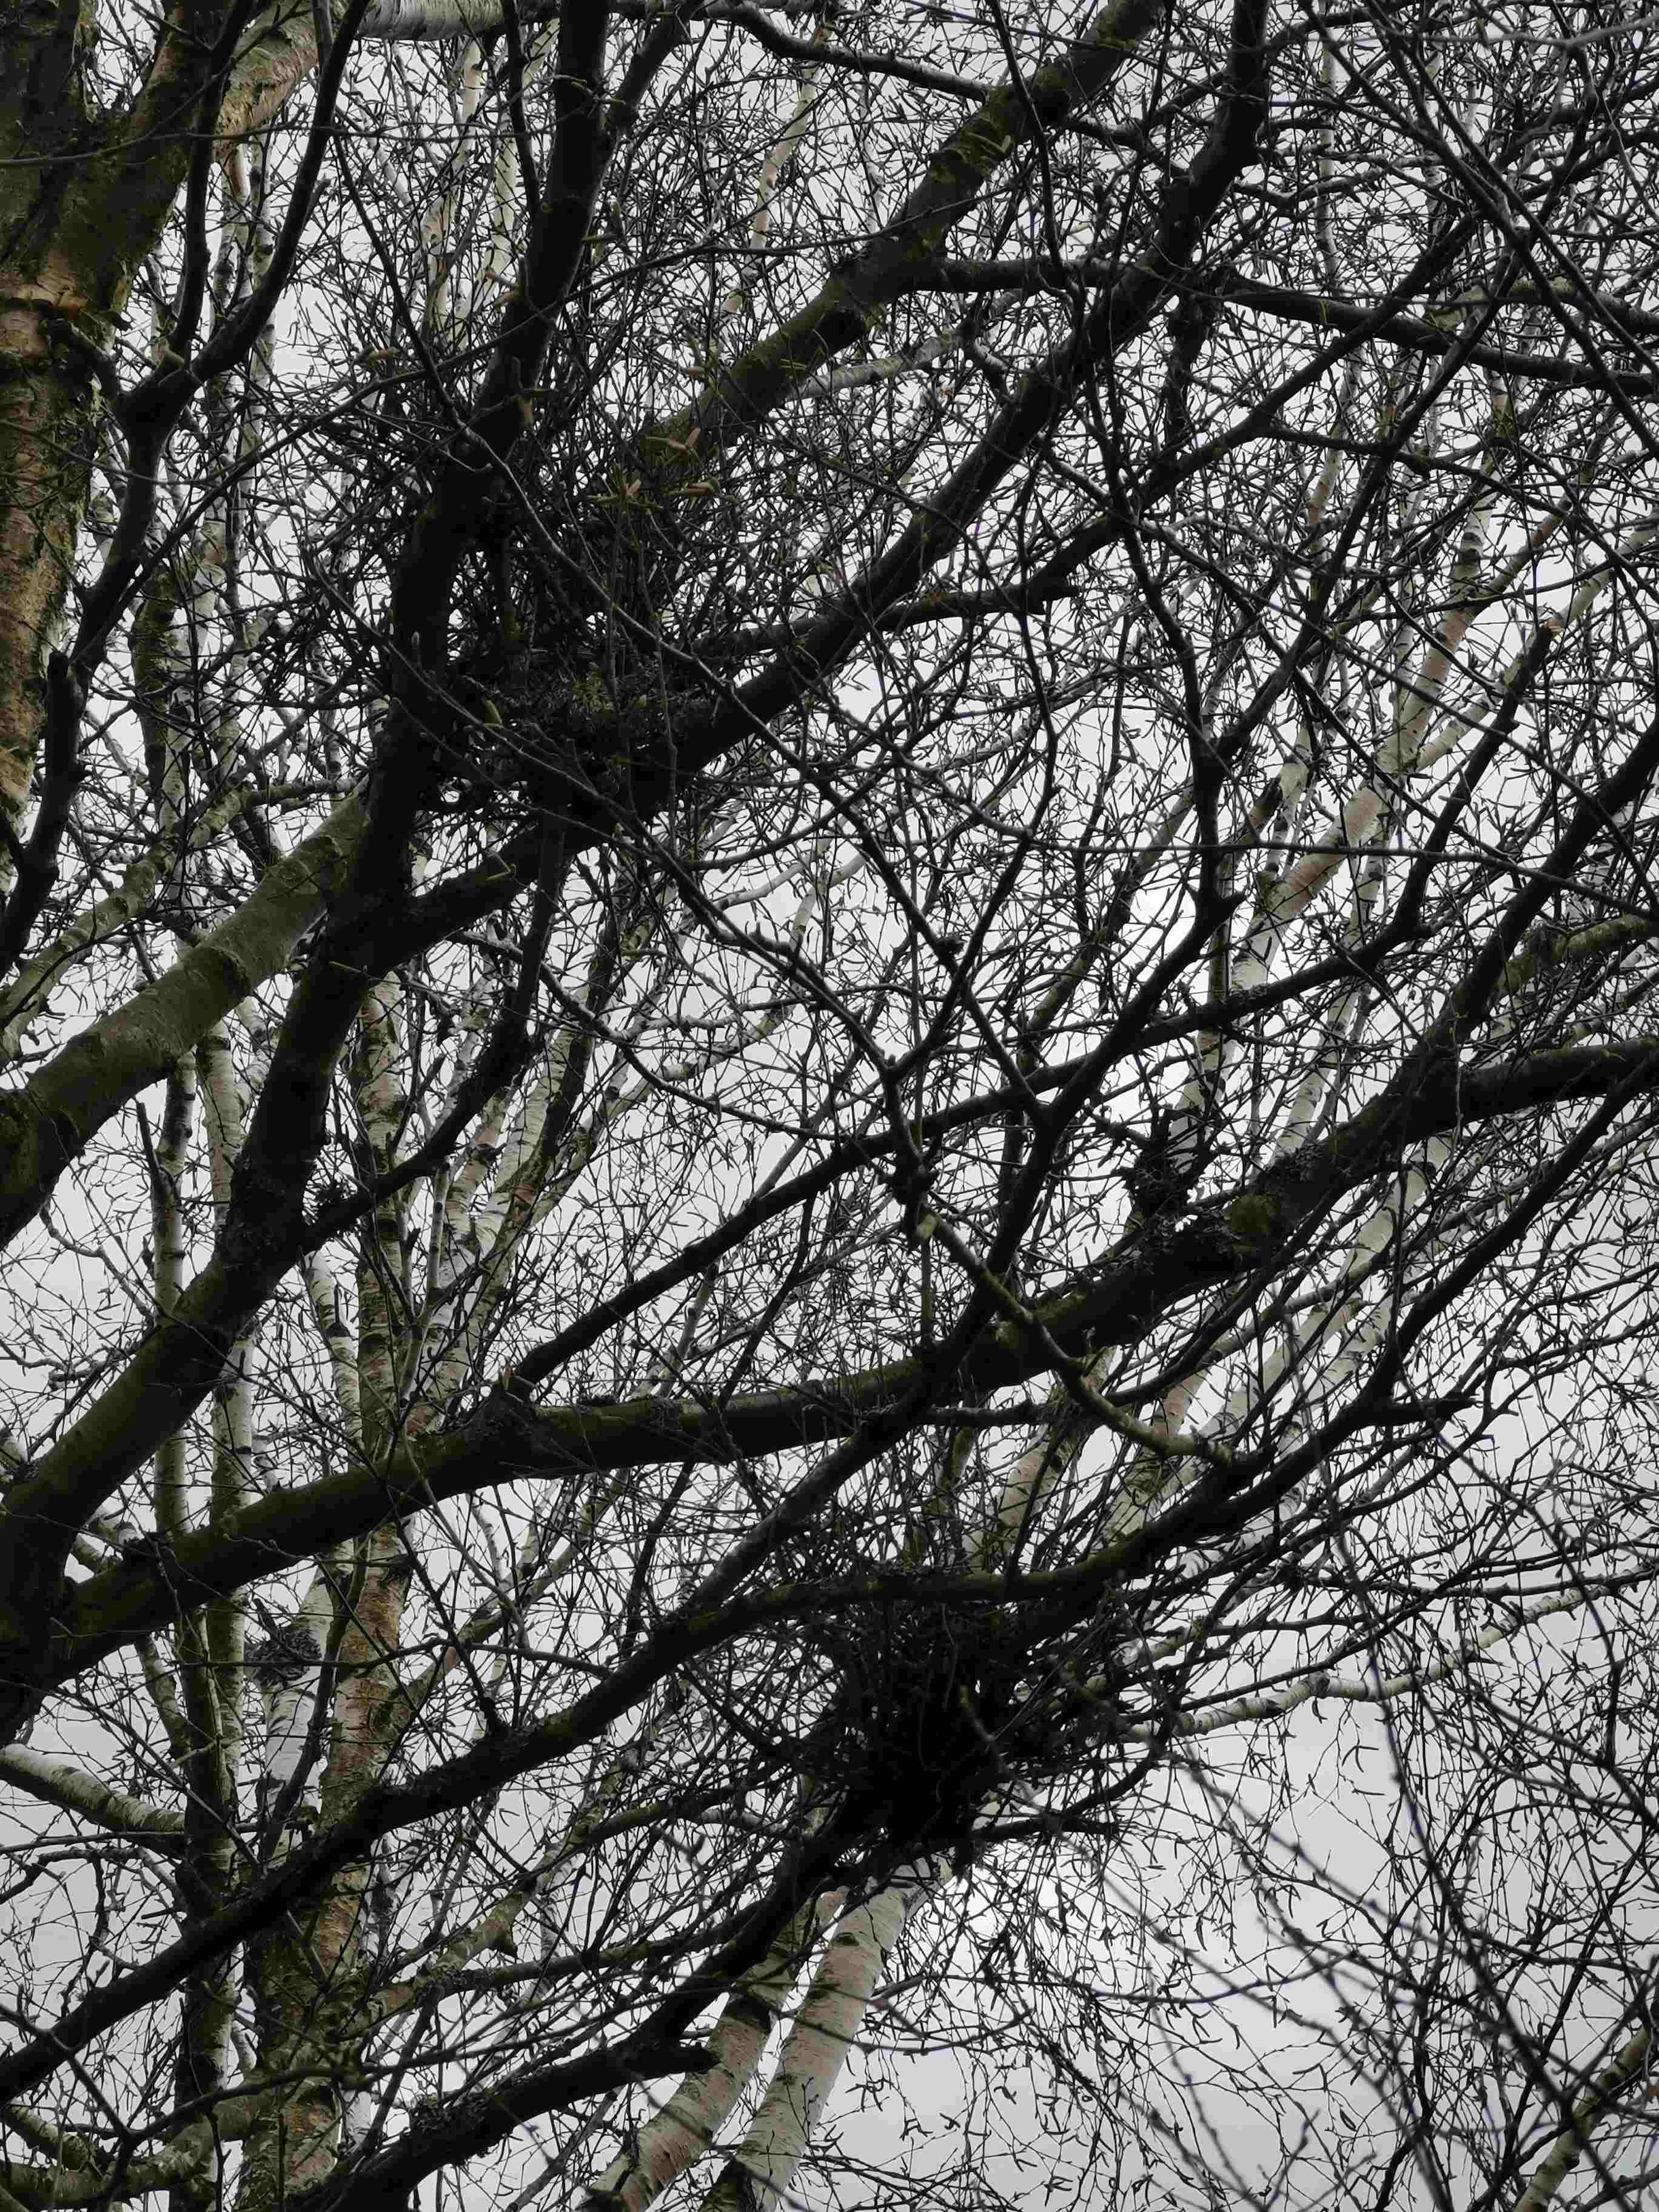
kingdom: Fungi
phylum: Ascomycota
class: Taphrinomycetes
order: Taphrinales
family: Taphrinaceae
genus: Taphrina
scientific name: Taphrina betulina
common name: hekse-sækdug
